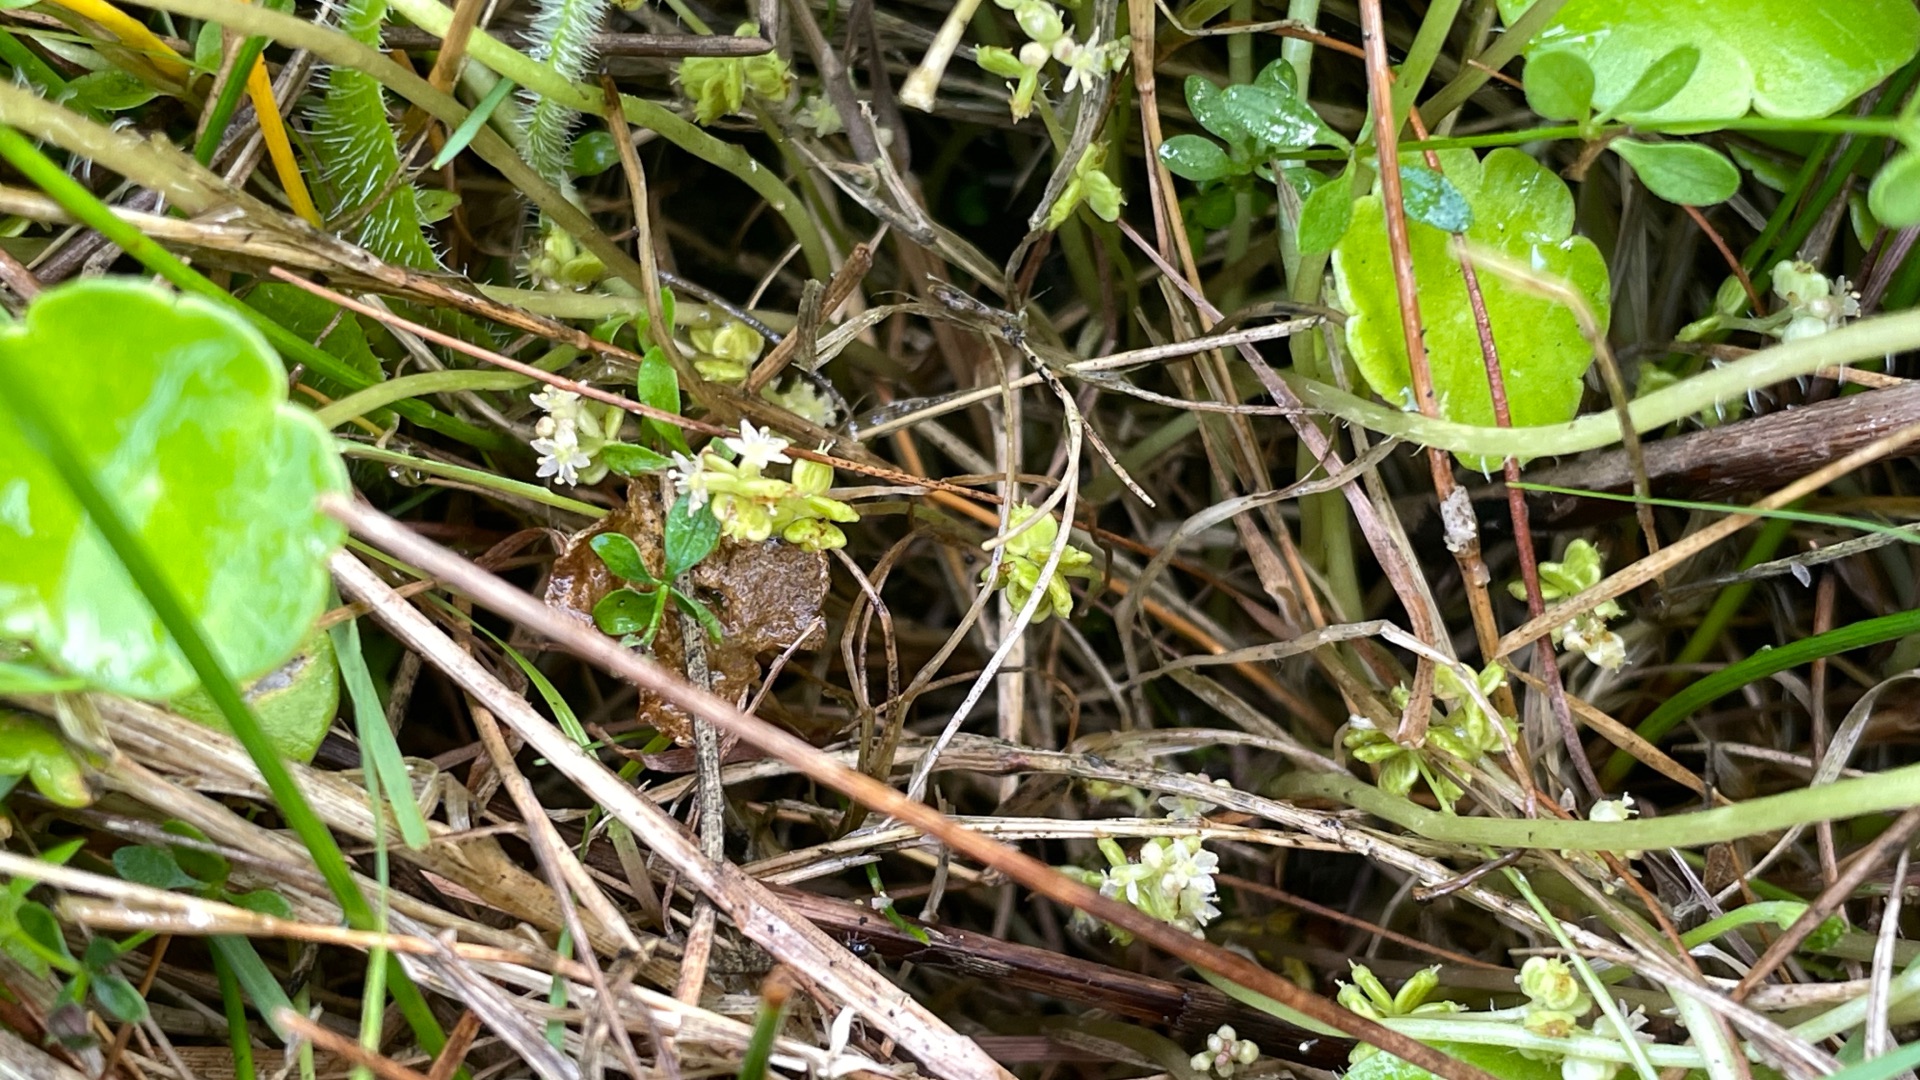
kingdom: Plantae
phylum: Tracheophyta
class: Magnoliopsida
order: Apiales
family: Araliaceae
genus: Hydrocotyle
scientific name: Hydrocotyle vulgaris
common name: Vandnavle
